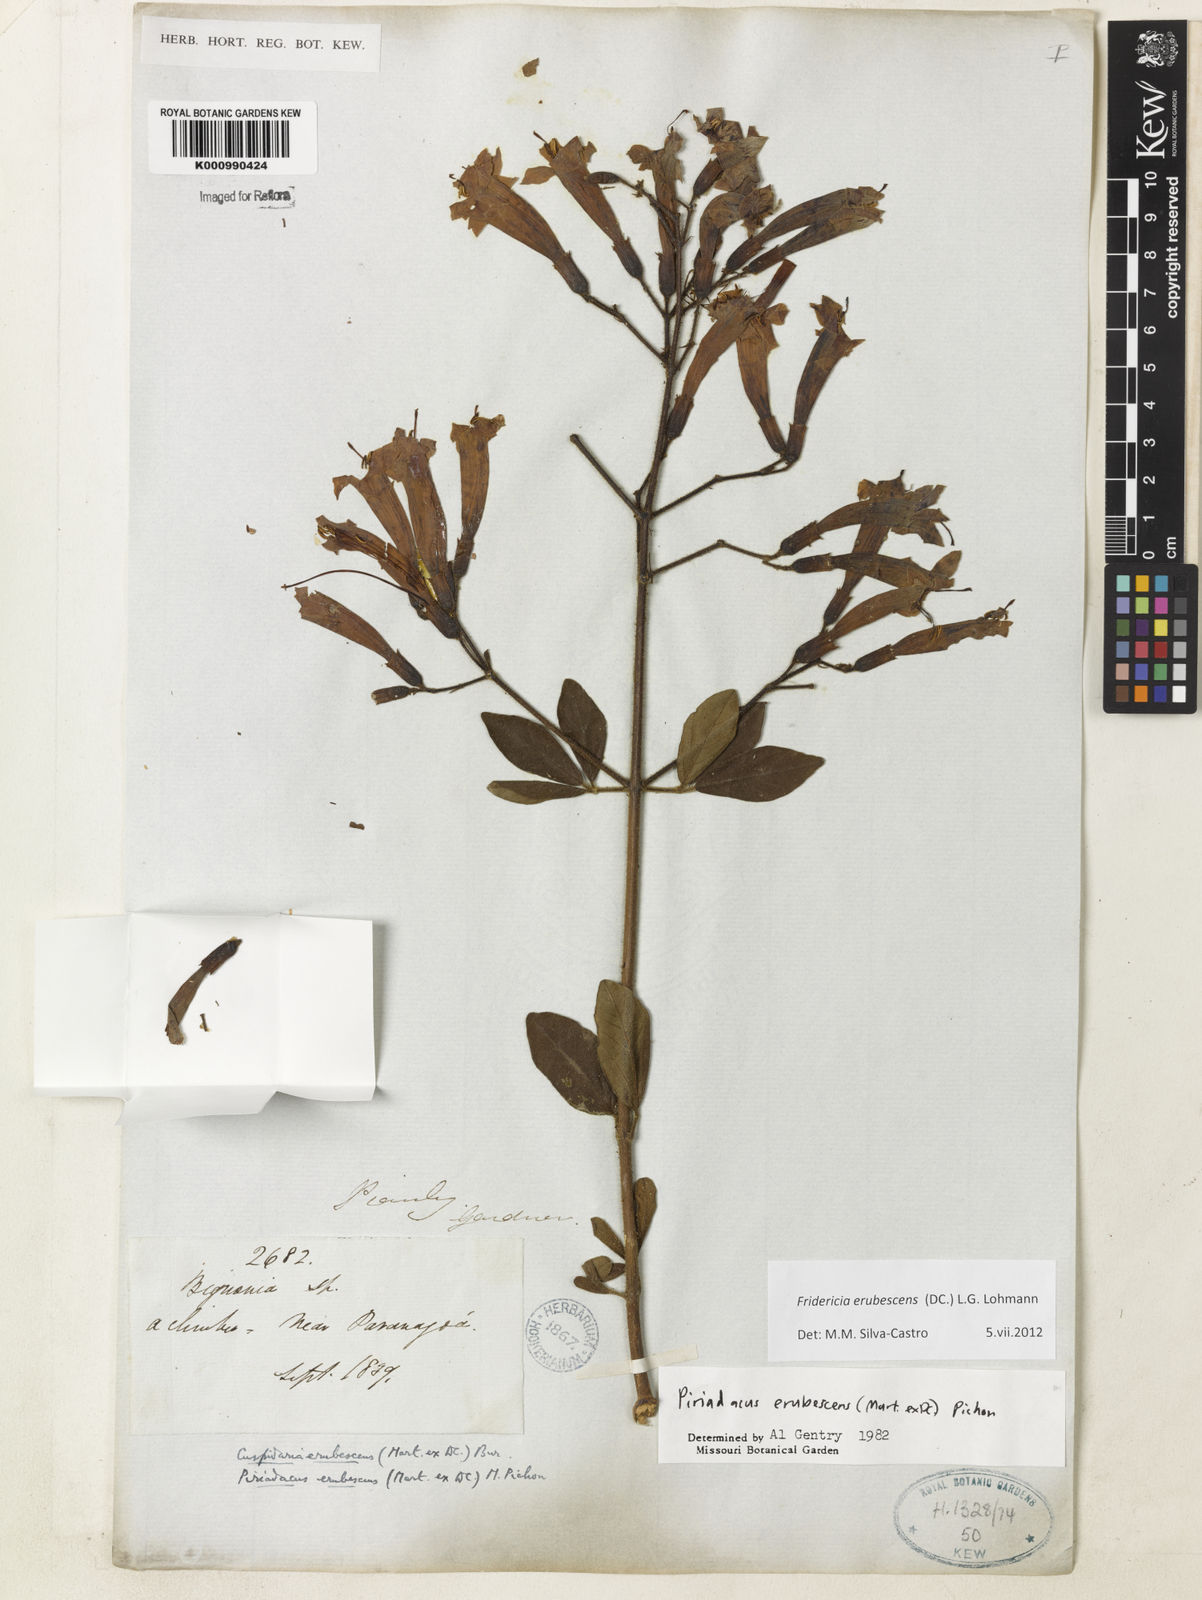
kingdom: Plantae
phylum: Tracheophyta
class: Magnoliopsida
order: Lamiales
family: Bignoniaceae
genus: Fridericia
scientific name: Fridericia erubescens
